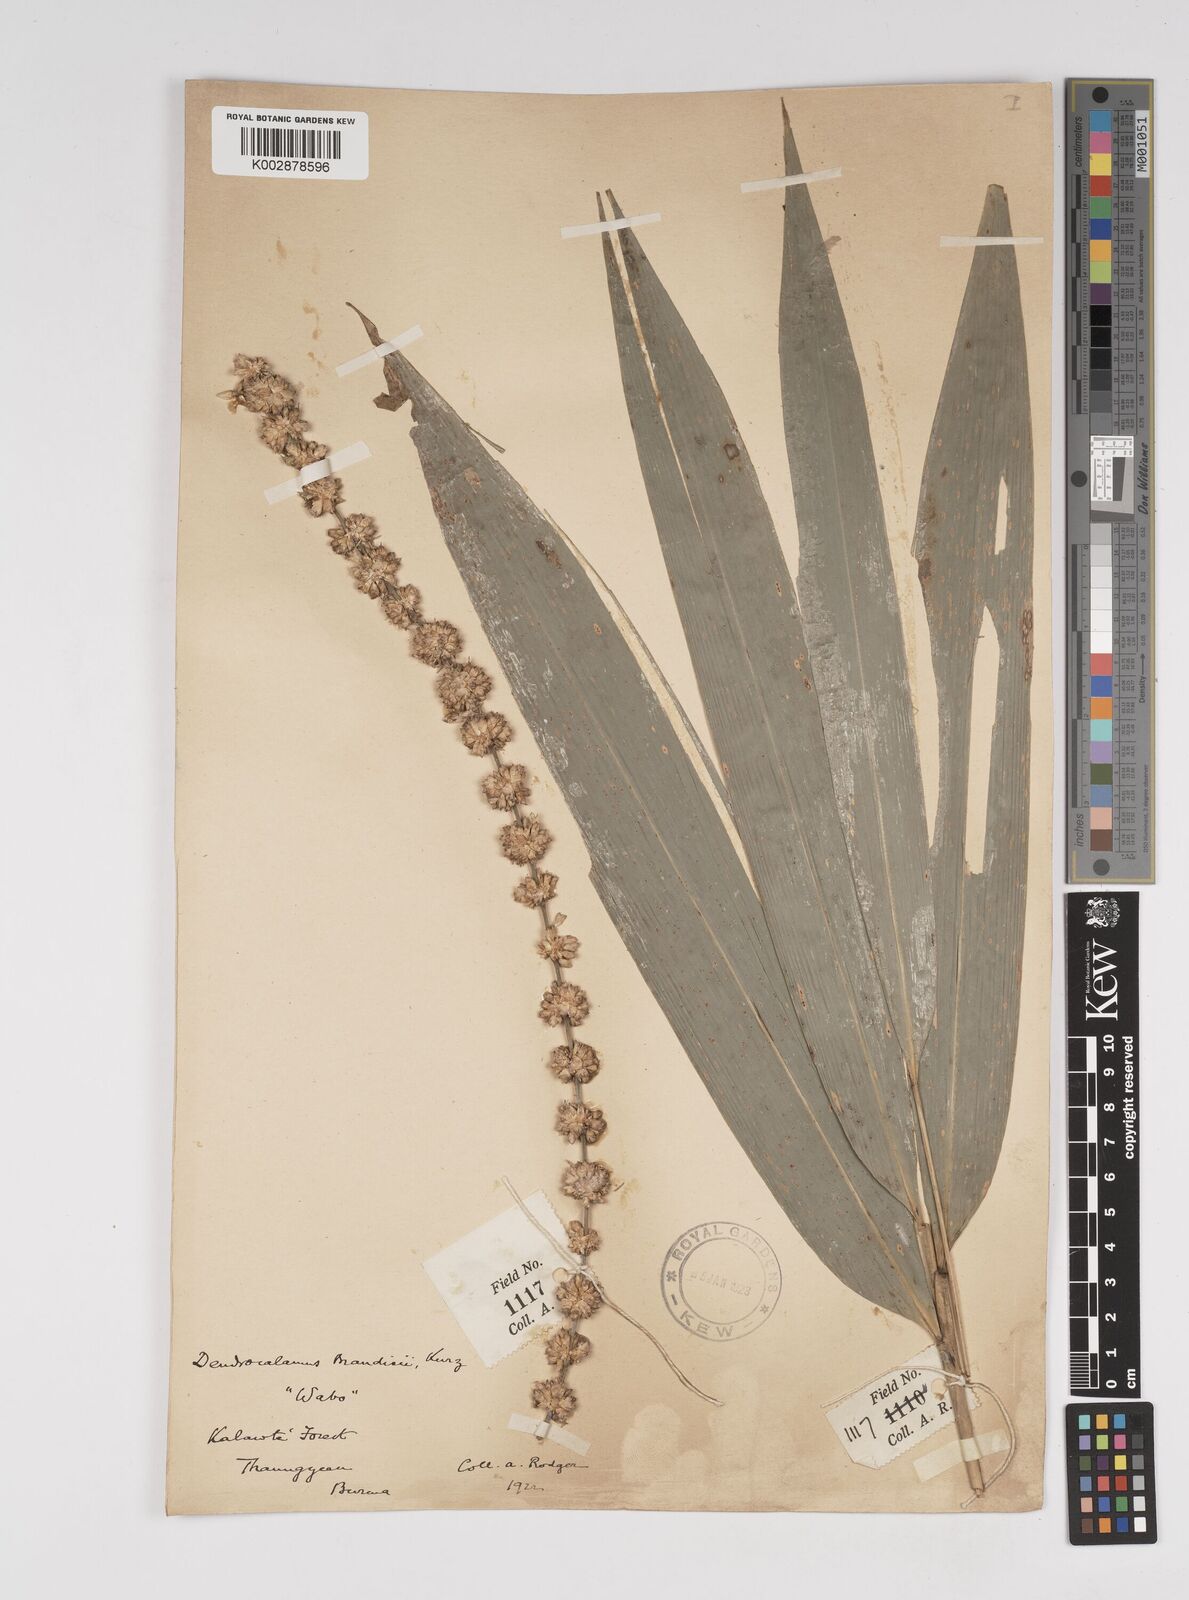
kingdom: Plantae
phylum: Tracheophyta
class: Liliopsida
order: Poales
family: Poaceae
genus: Dendrocalamus
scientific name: Dendrocalamus brandisii
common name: Velvetleaf bamboo
